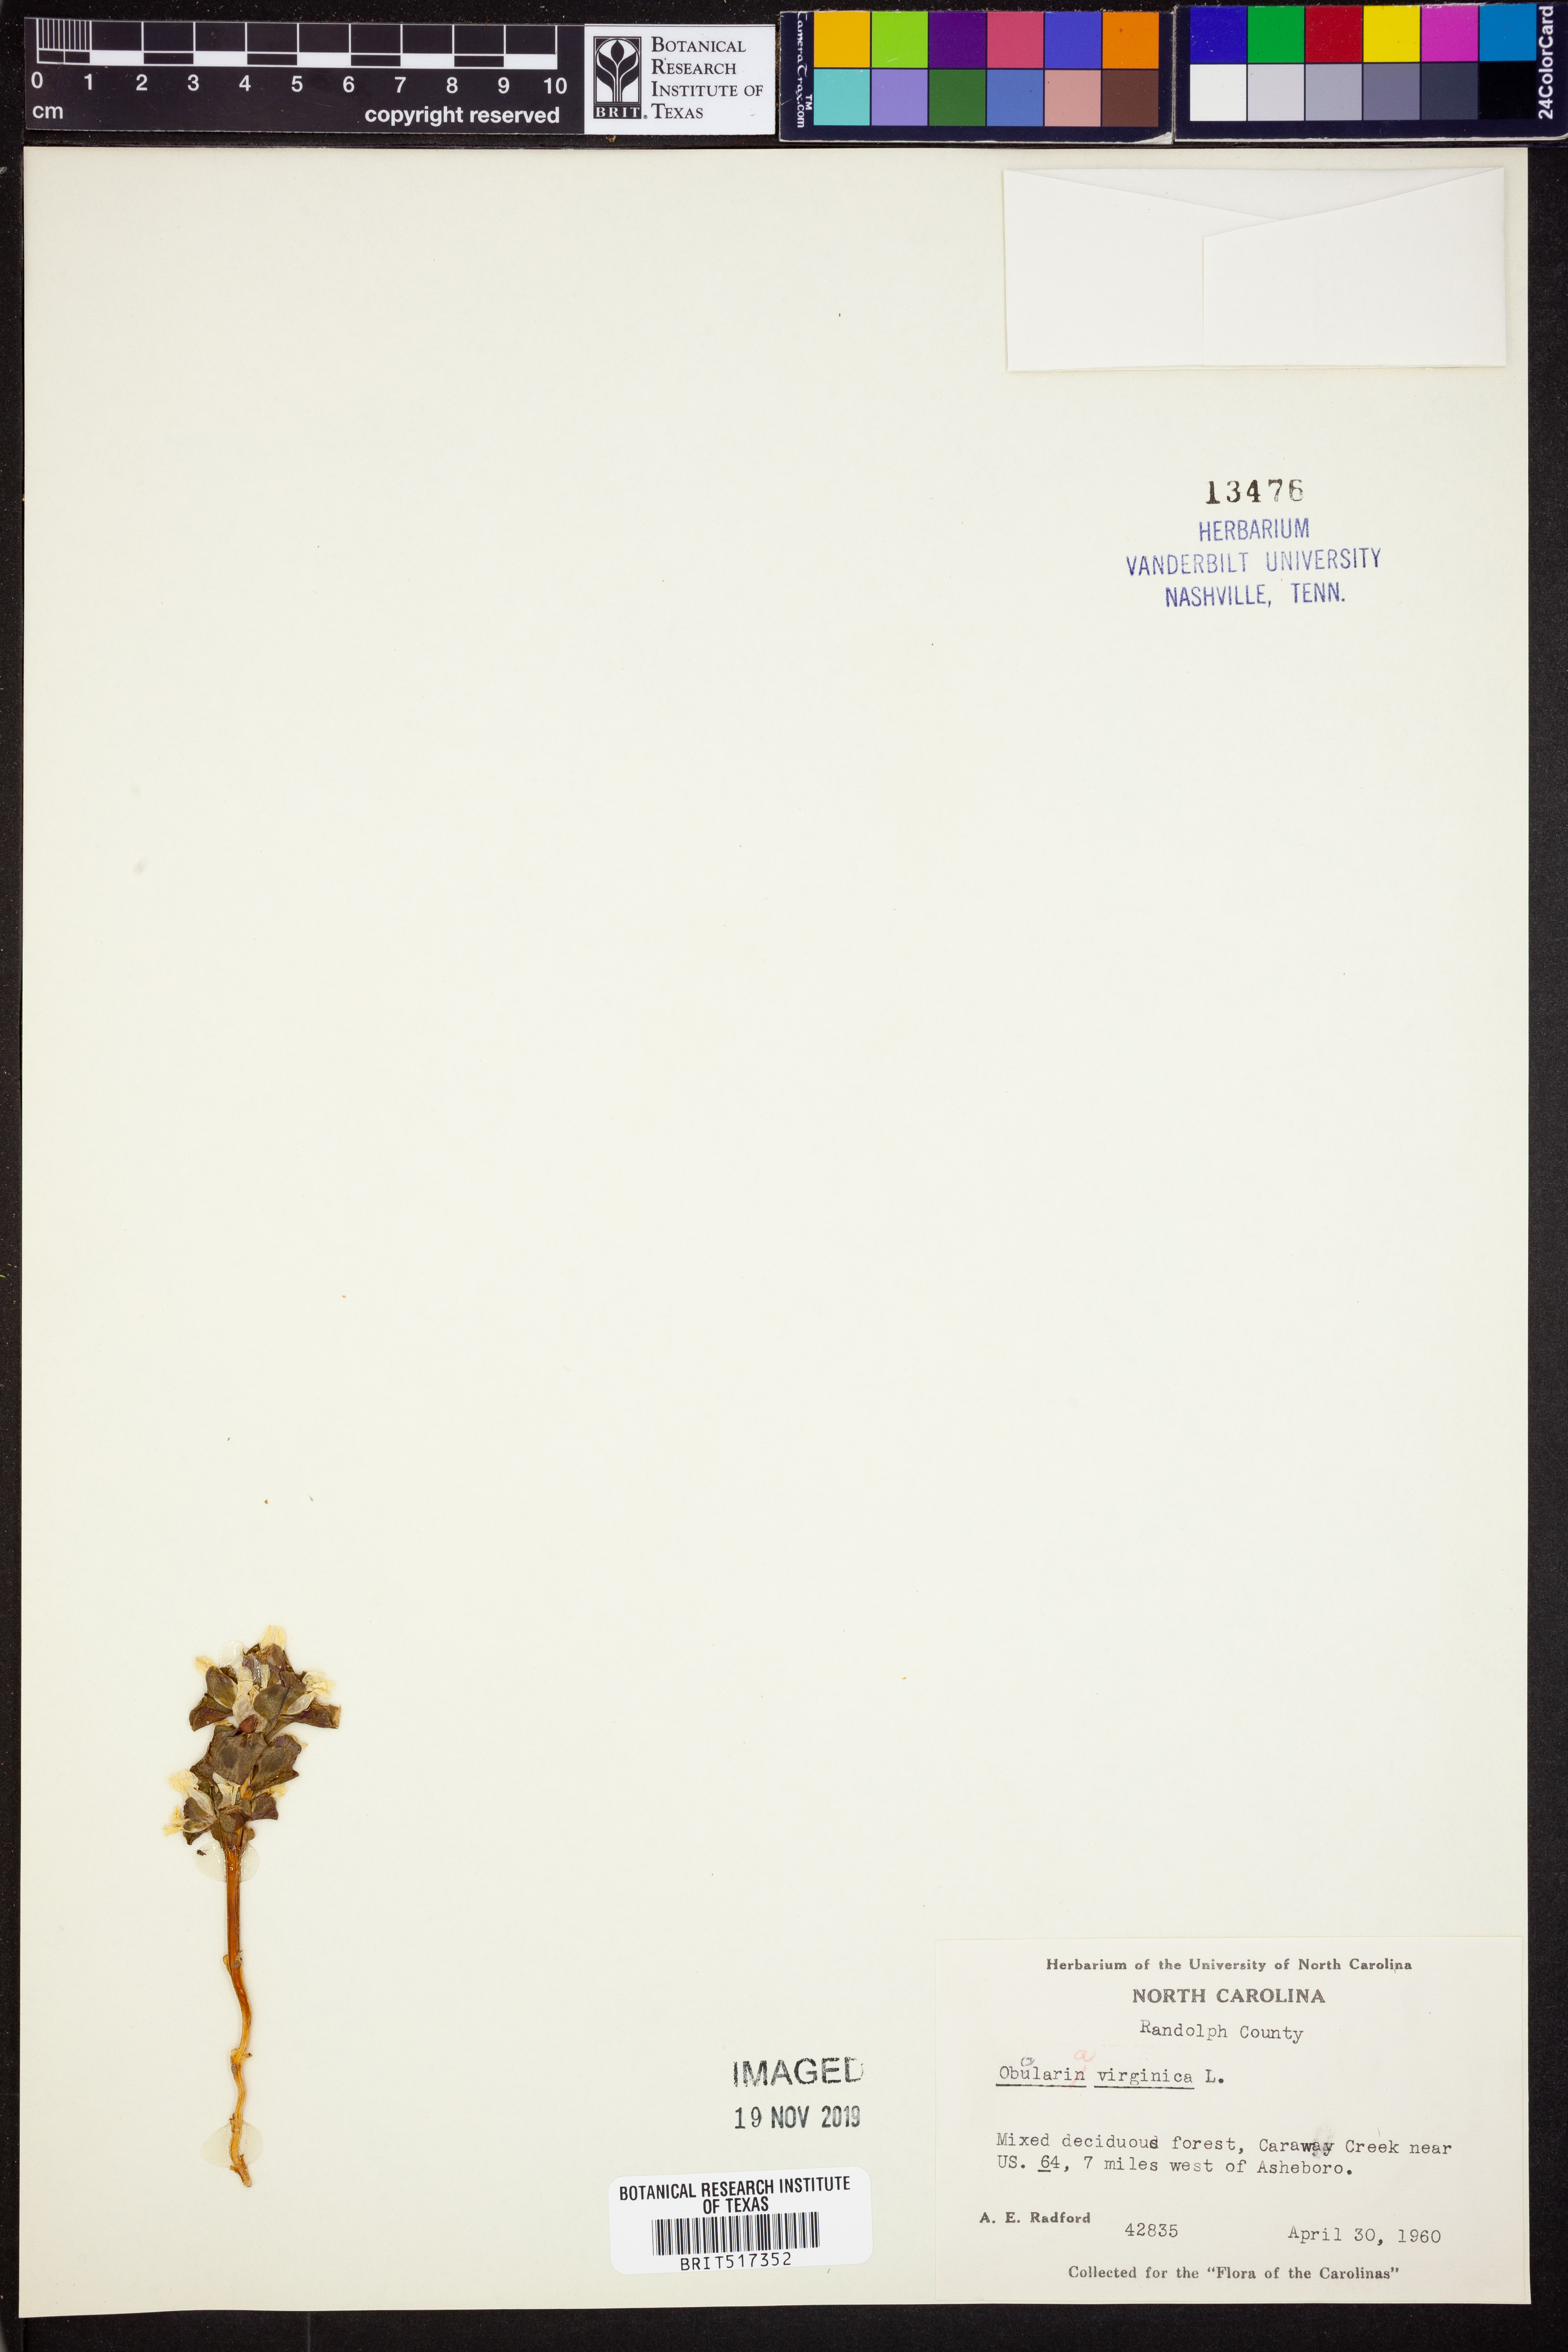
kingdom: Plantae
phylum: Tracheophyta
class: Magnoliopsida
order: Gentianales
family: Gentianaceae
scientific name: Gentianaceae
